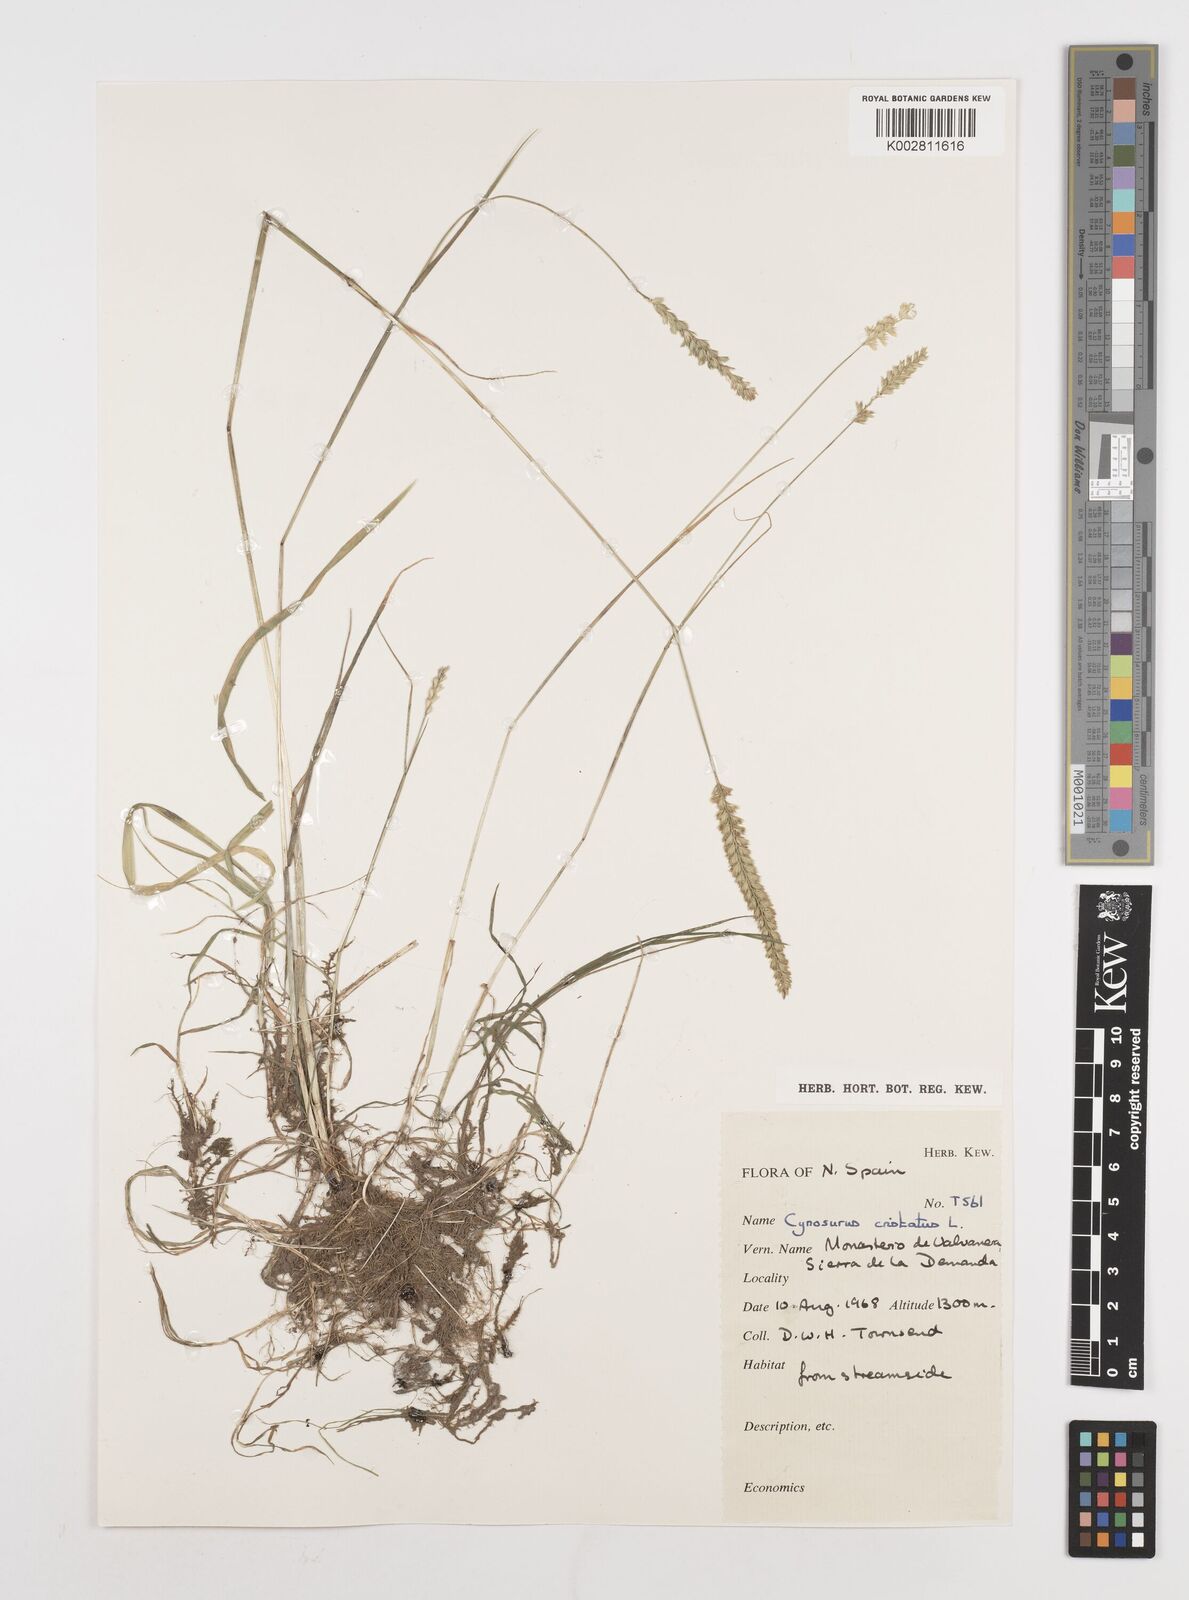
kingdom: Plantae
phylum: Tracheophyta
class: Liliopsida
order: Poales
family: Poaceae
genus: Cynosurus
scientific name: Cynosurus cristatus
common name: Crested dog's-tail
